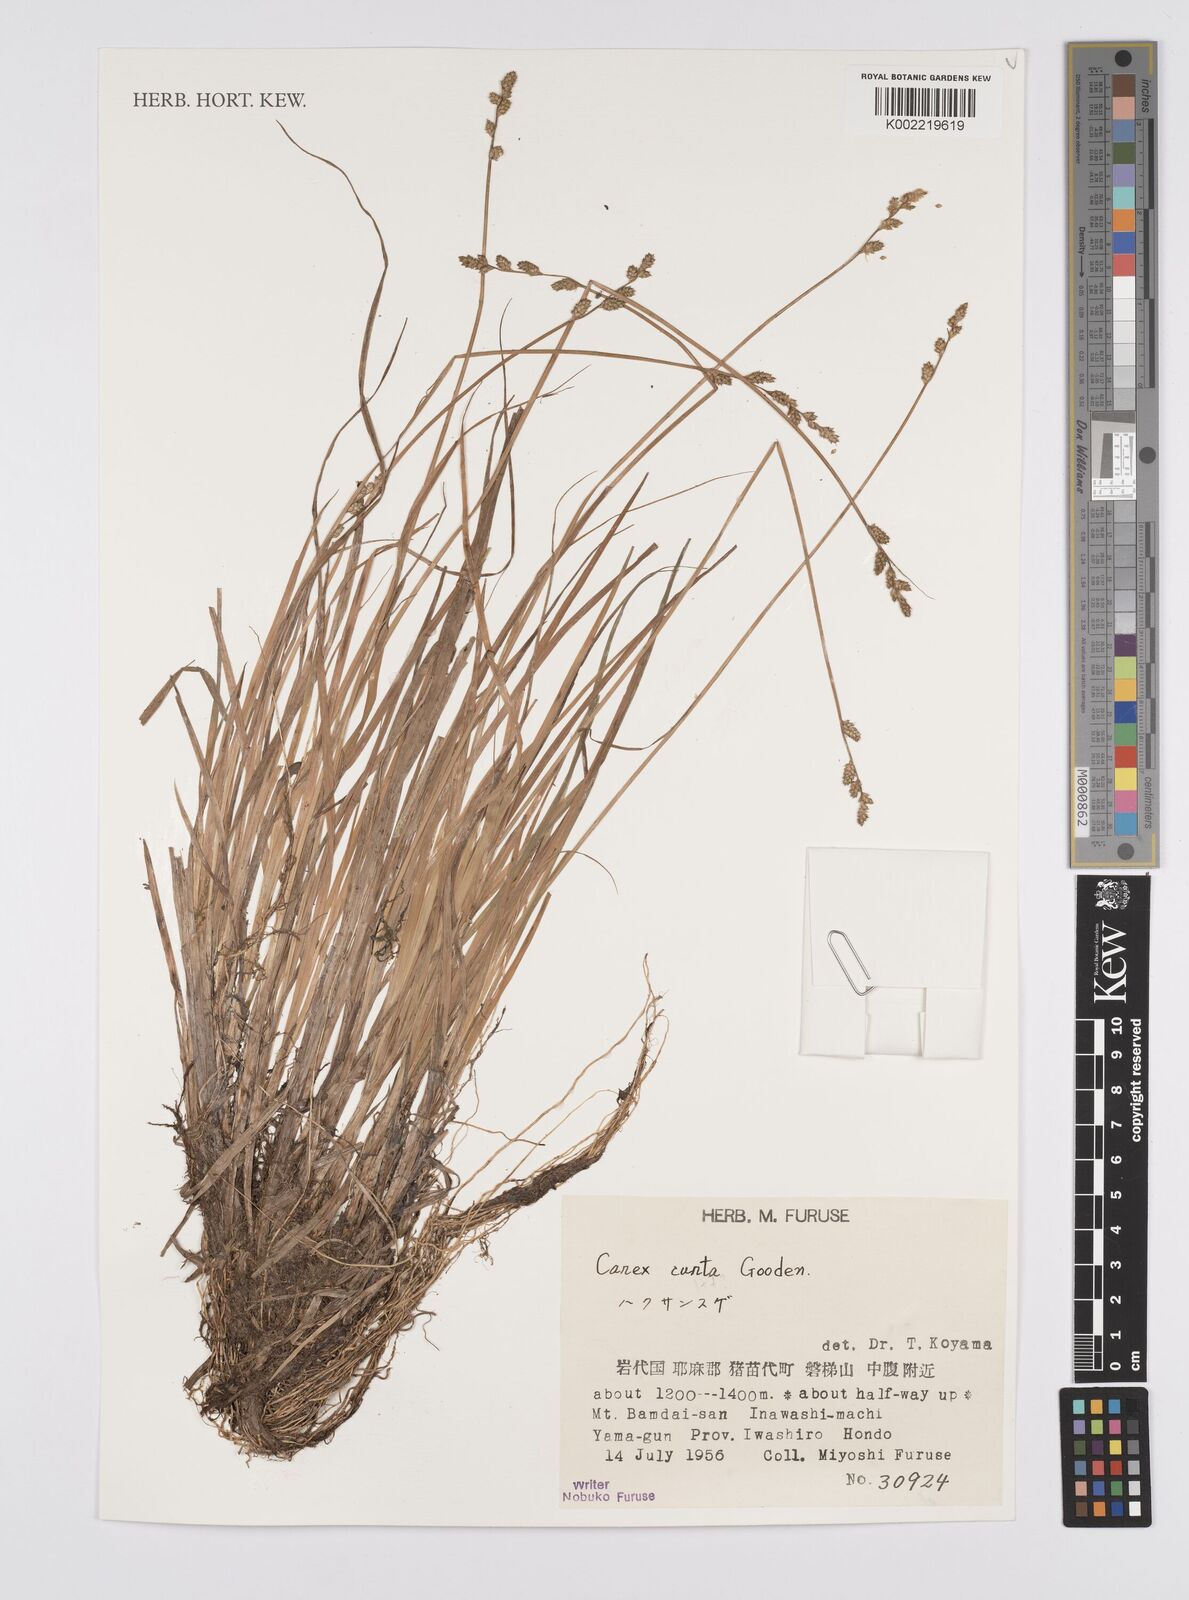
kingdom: Plantae
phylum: Tracheophyta
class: Liliopsida
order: Poales
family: Cyperaceae
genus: Carex
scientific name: Carex canescens
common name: White sedge
